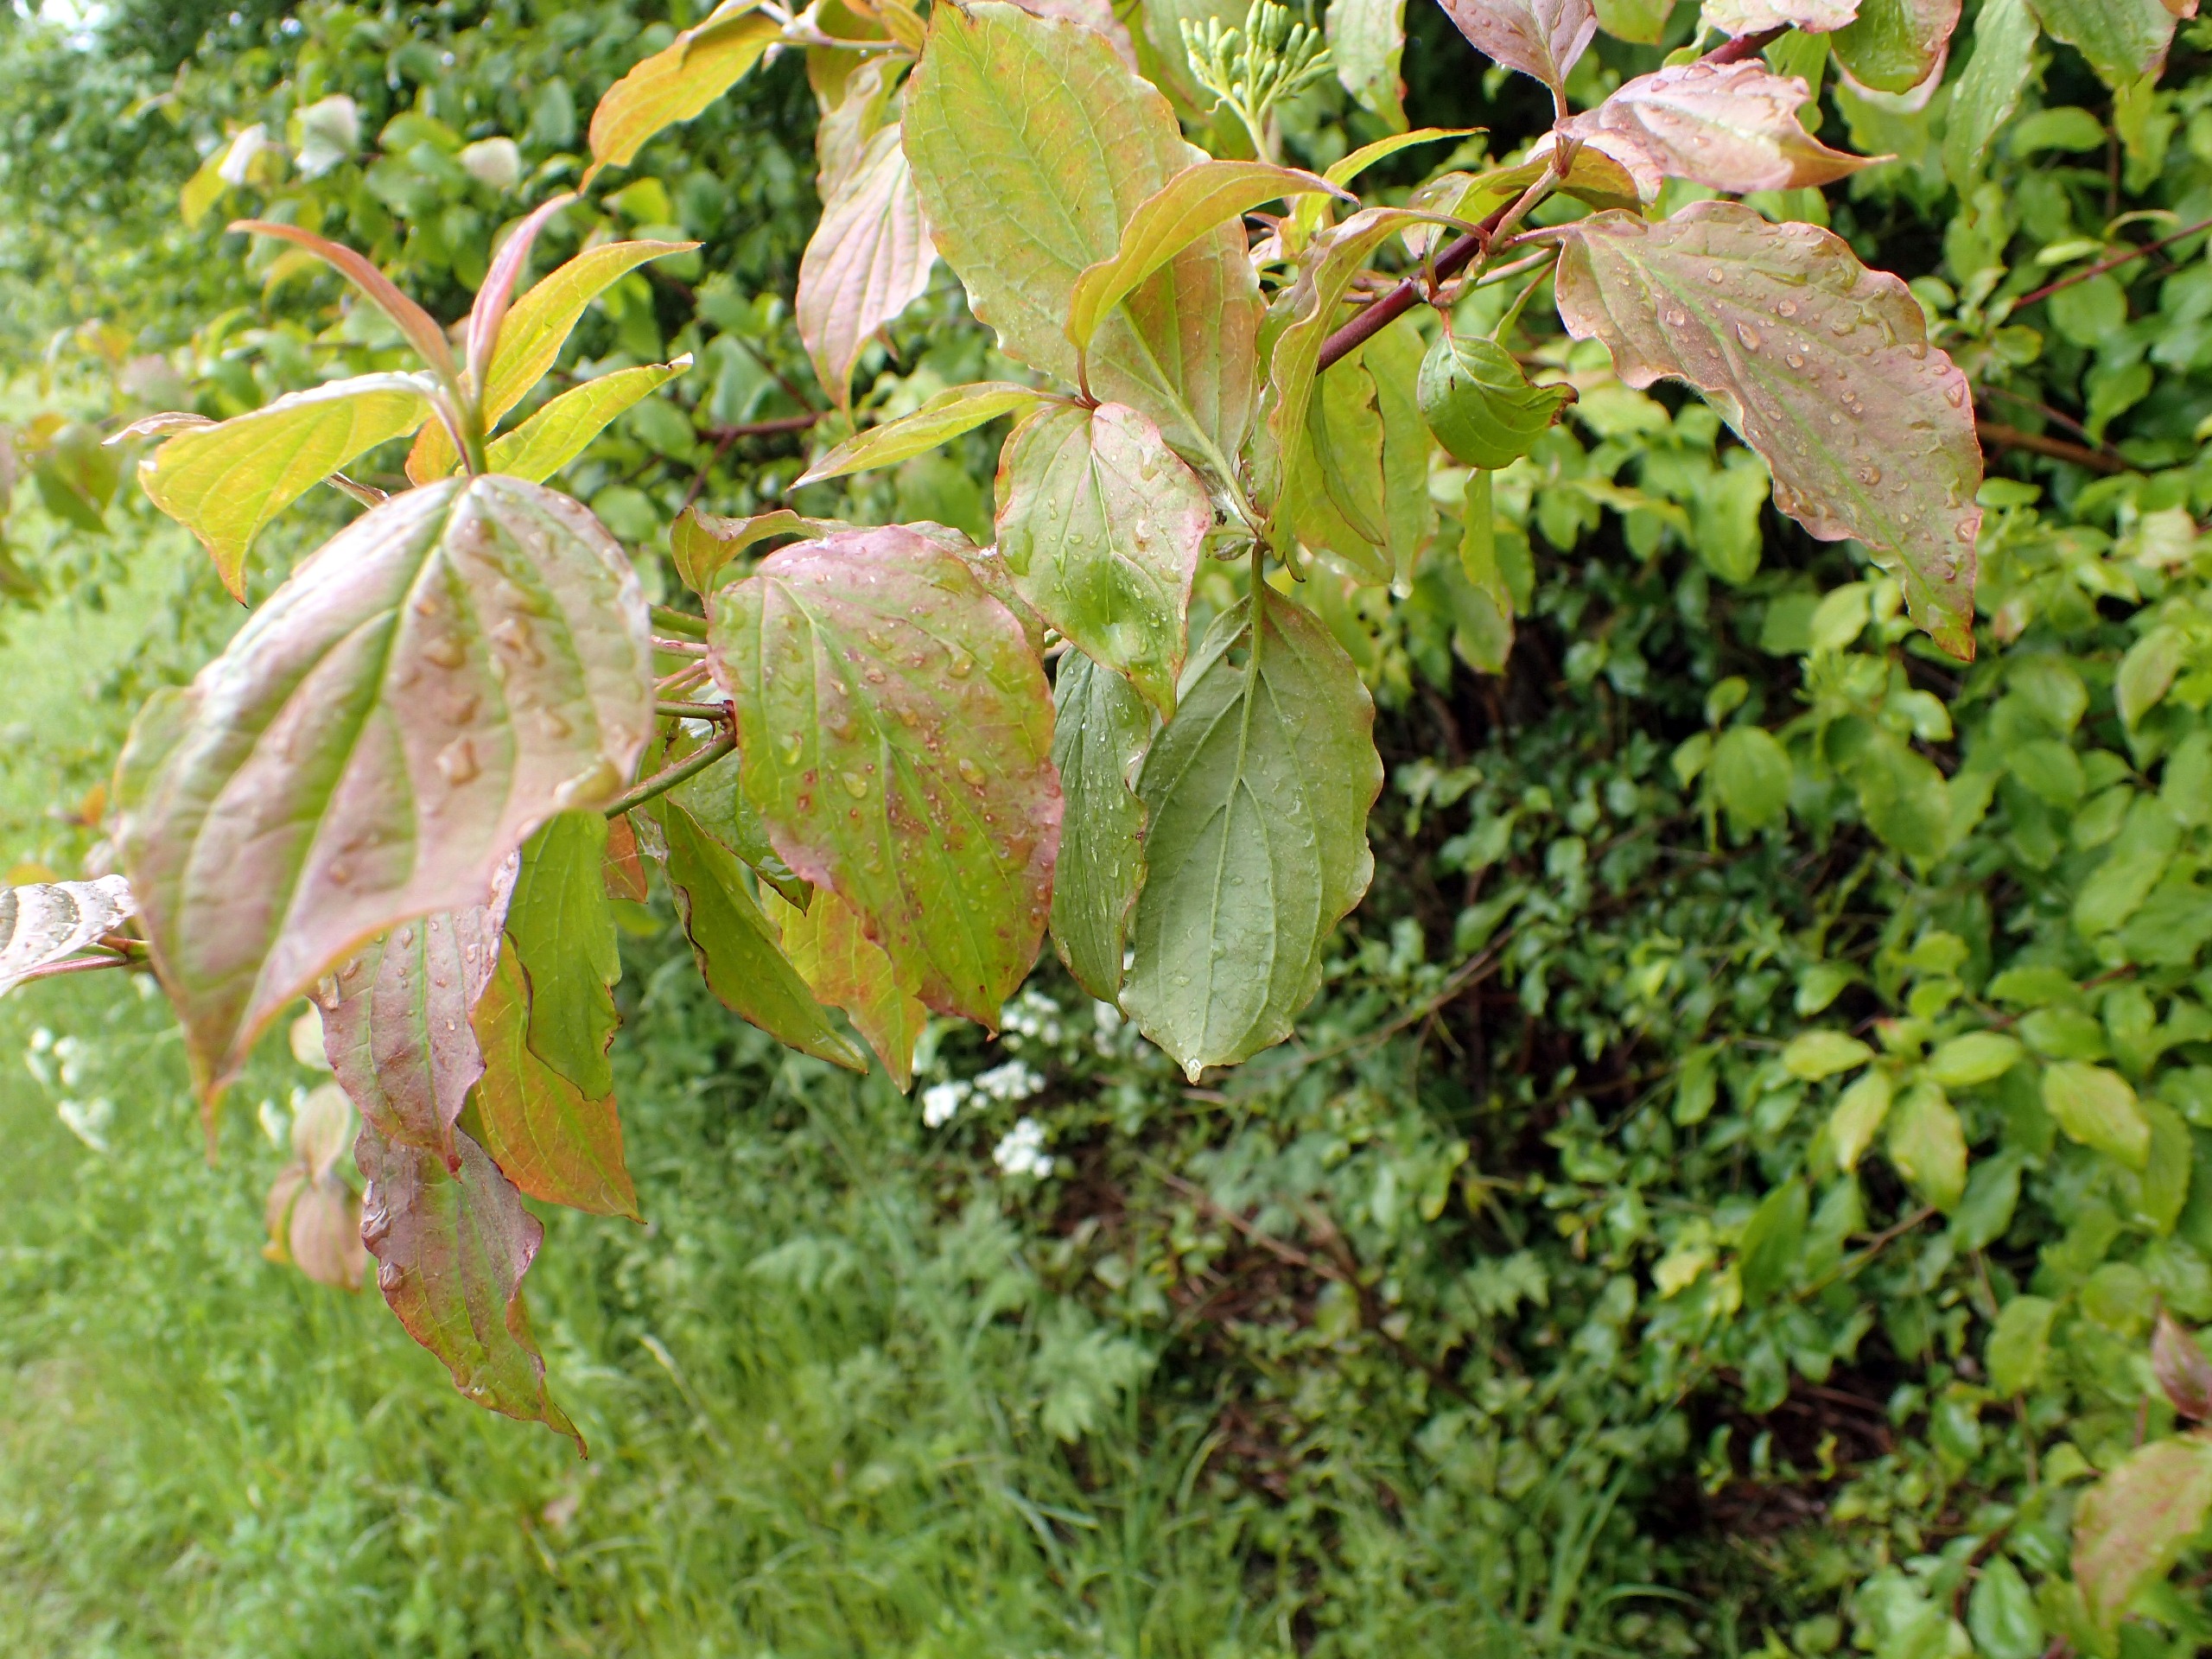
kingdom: Plantae
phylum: Tracheophyta
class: Magnoliopsida
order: Cornales
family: Cornaceae
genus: Cornus
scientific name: Cornus sanguinea
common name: Rød kornel
